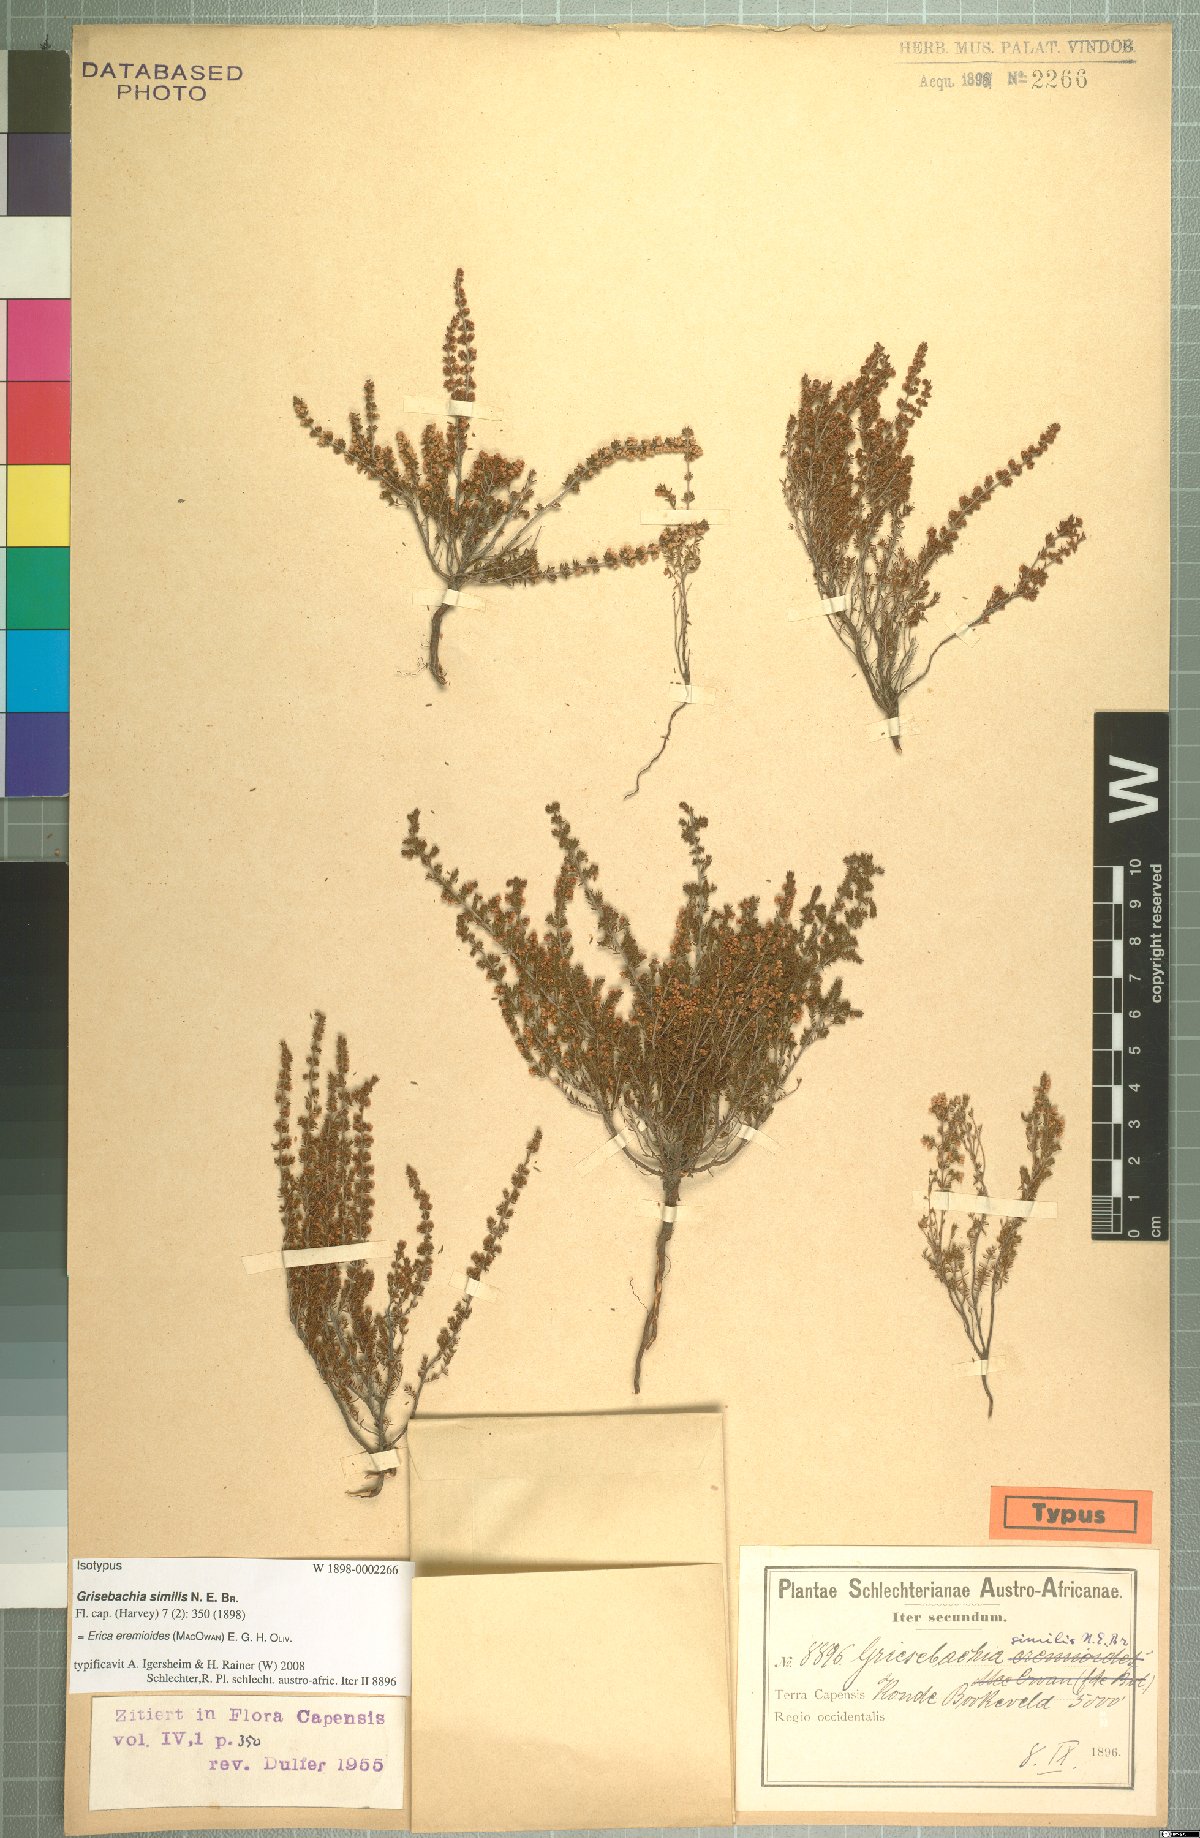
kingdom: Plantae
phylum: Tracheophyta
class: Magnoliopsida
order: Ericales
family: Ericaceae
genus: Erica
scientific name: Erica eremioides
